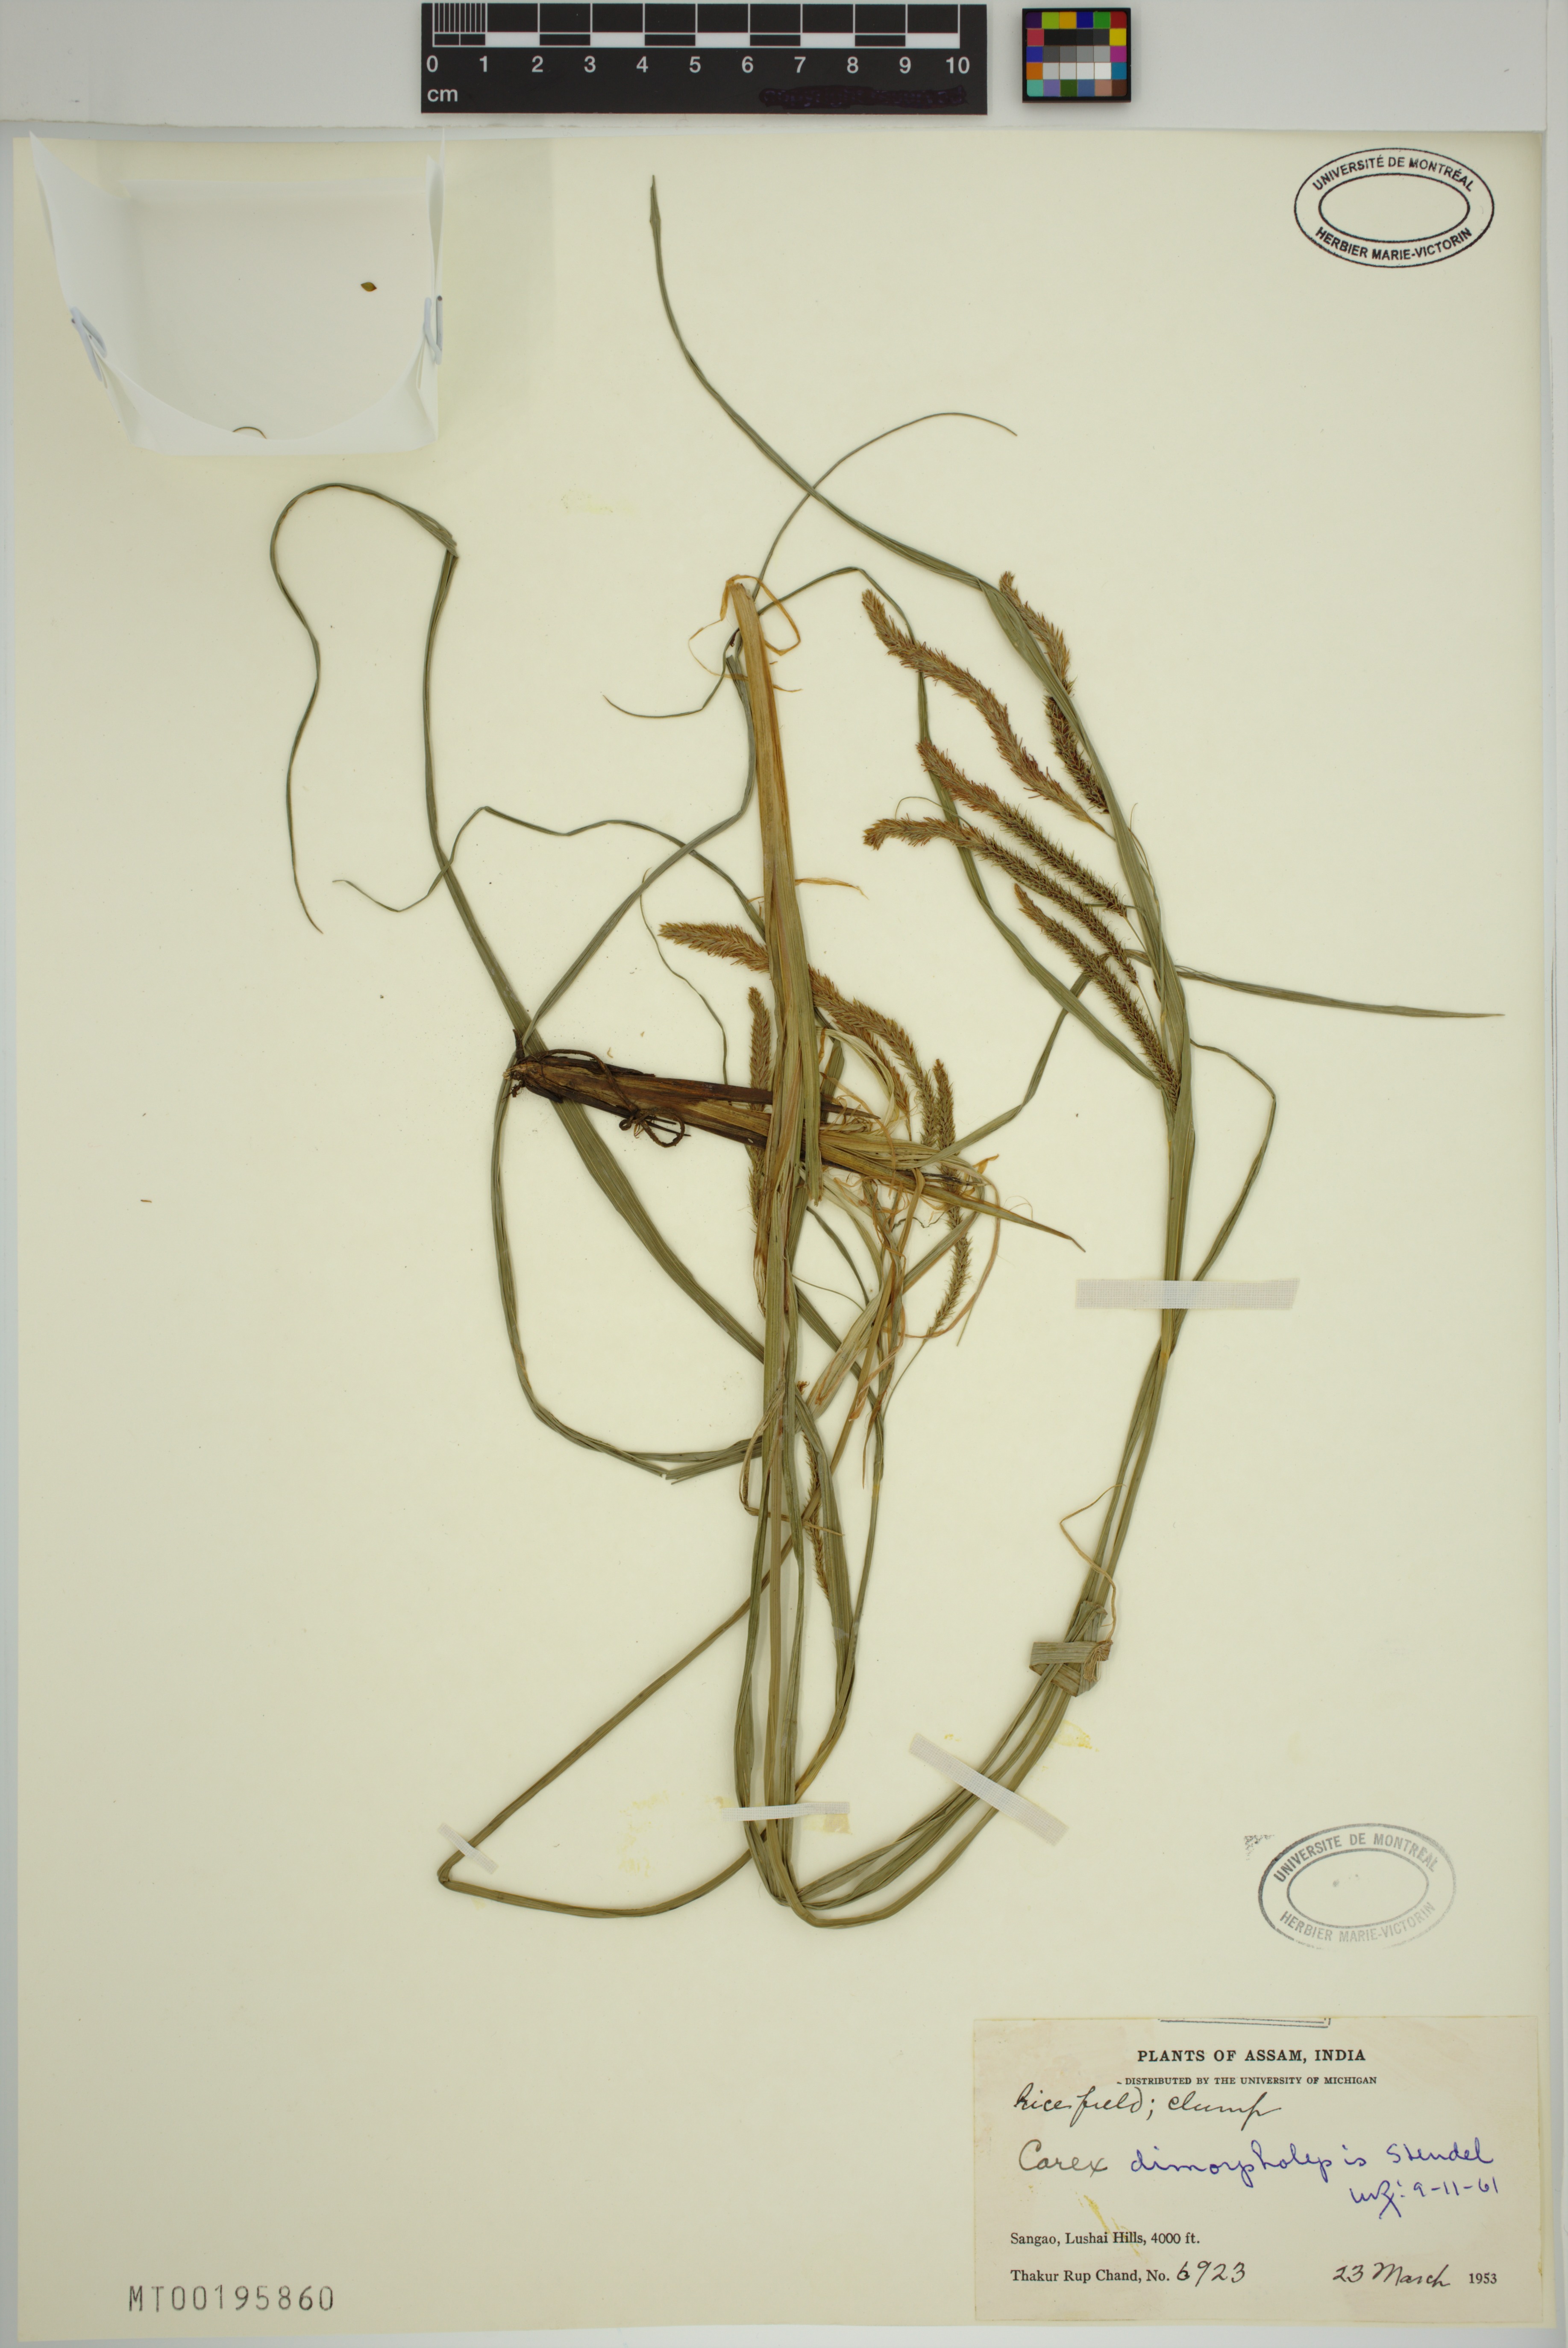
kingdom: Plantae
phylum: Tracheophyta
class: Liliopsida
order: Poales
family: Cyperaceae
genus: Carex
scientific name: Carex dimorpholepis
